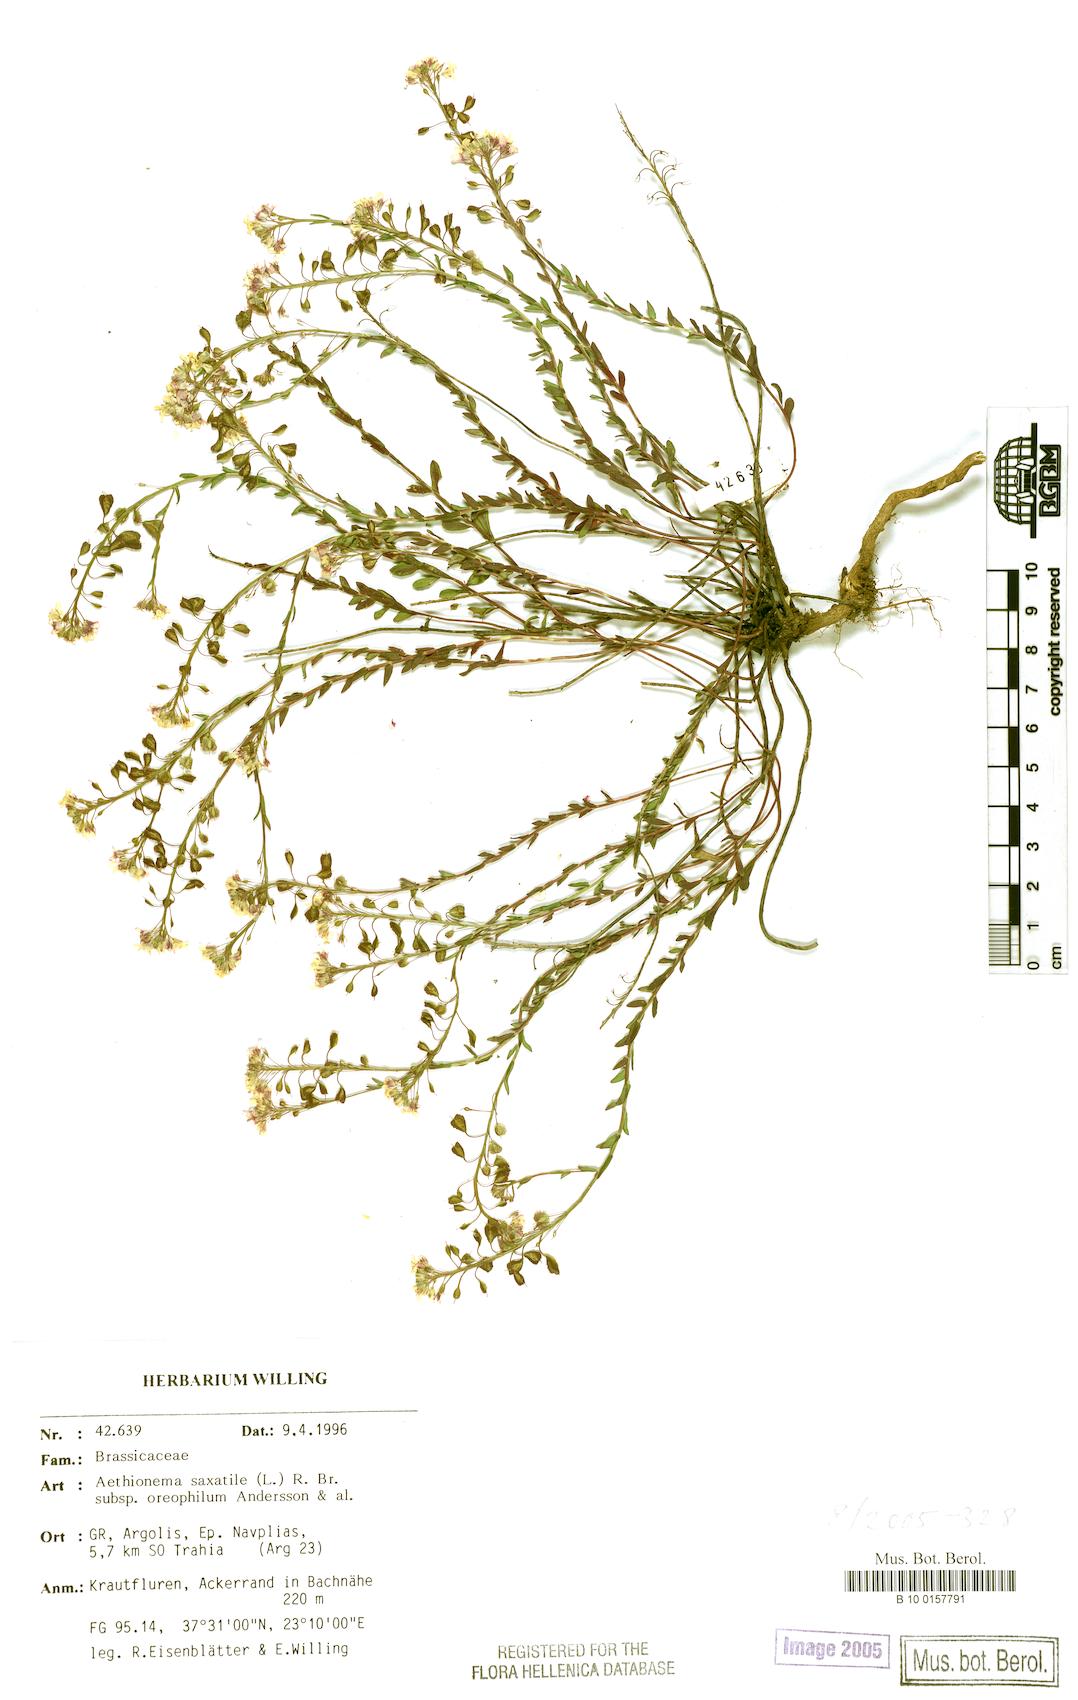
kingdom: Plantae
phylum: Tracheophyta
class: Magnoliopsida
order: Brassicales
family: Brassicaceae
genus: Aethionema
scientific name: Aethionema saxatile
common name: Burnt candytuft
